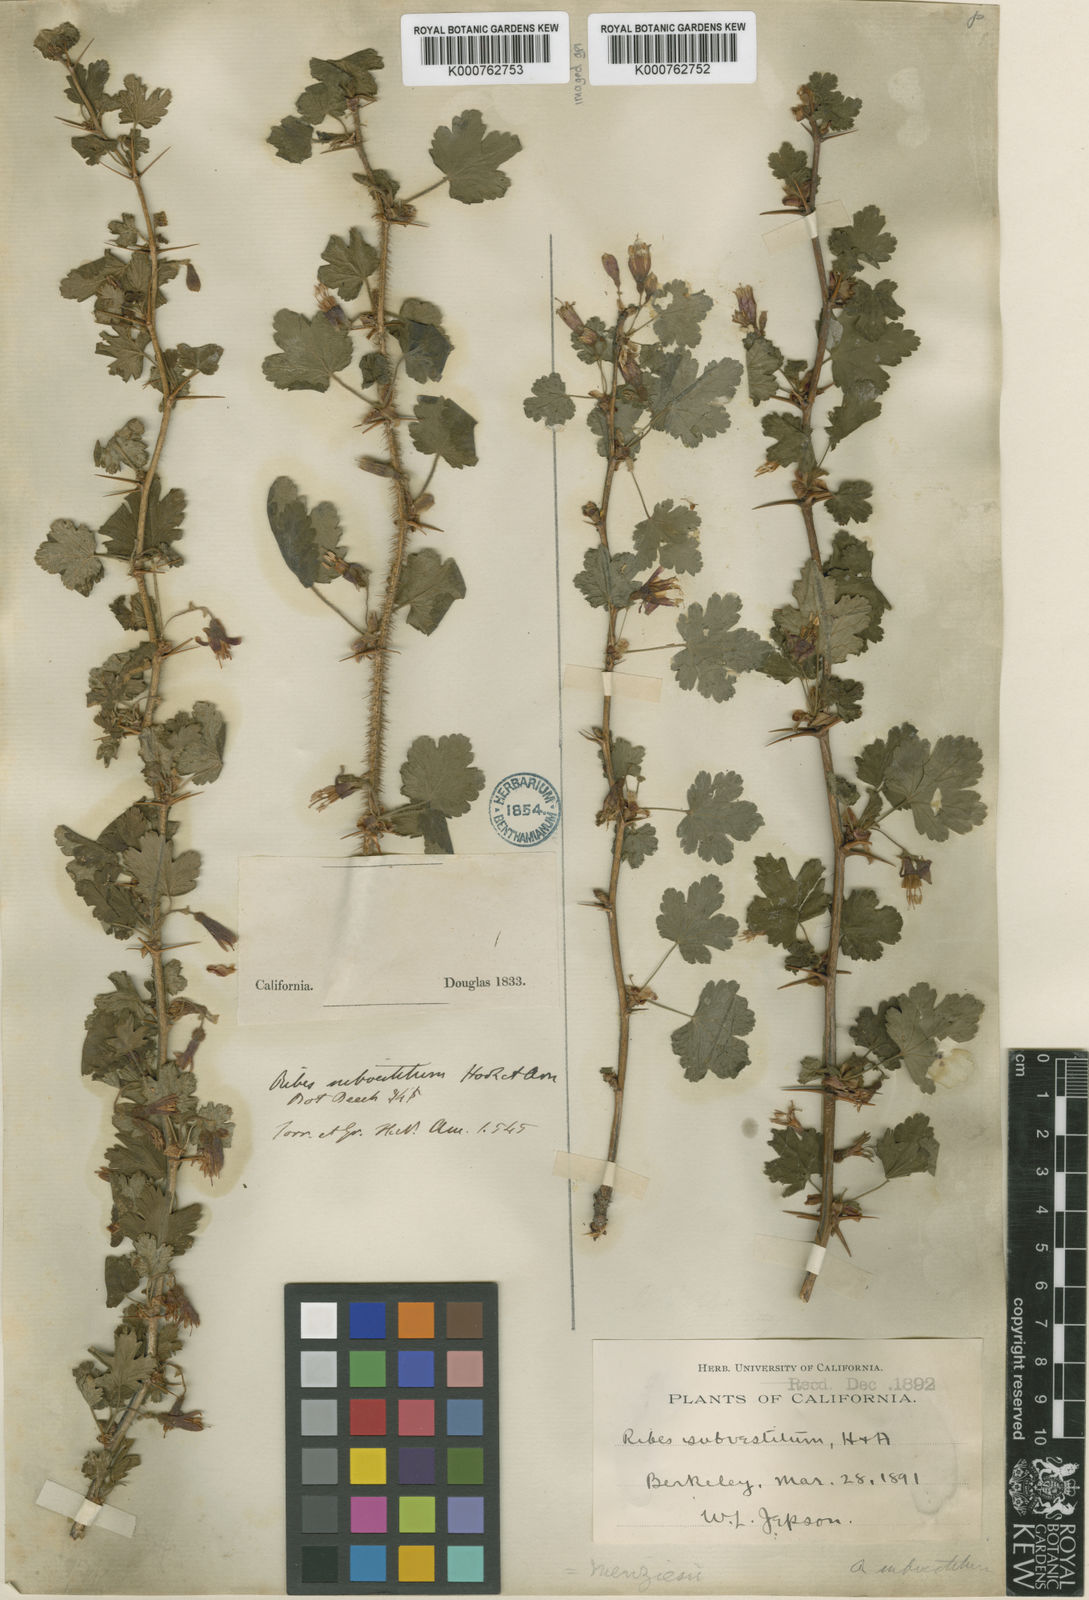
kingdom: Plantae
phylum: Tracheophyta
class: Magnoliopsida
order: Saxifragales
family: Grossulariaceae
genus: Ribes
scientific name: Ribes menziesii
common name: Canyon gooseberry
